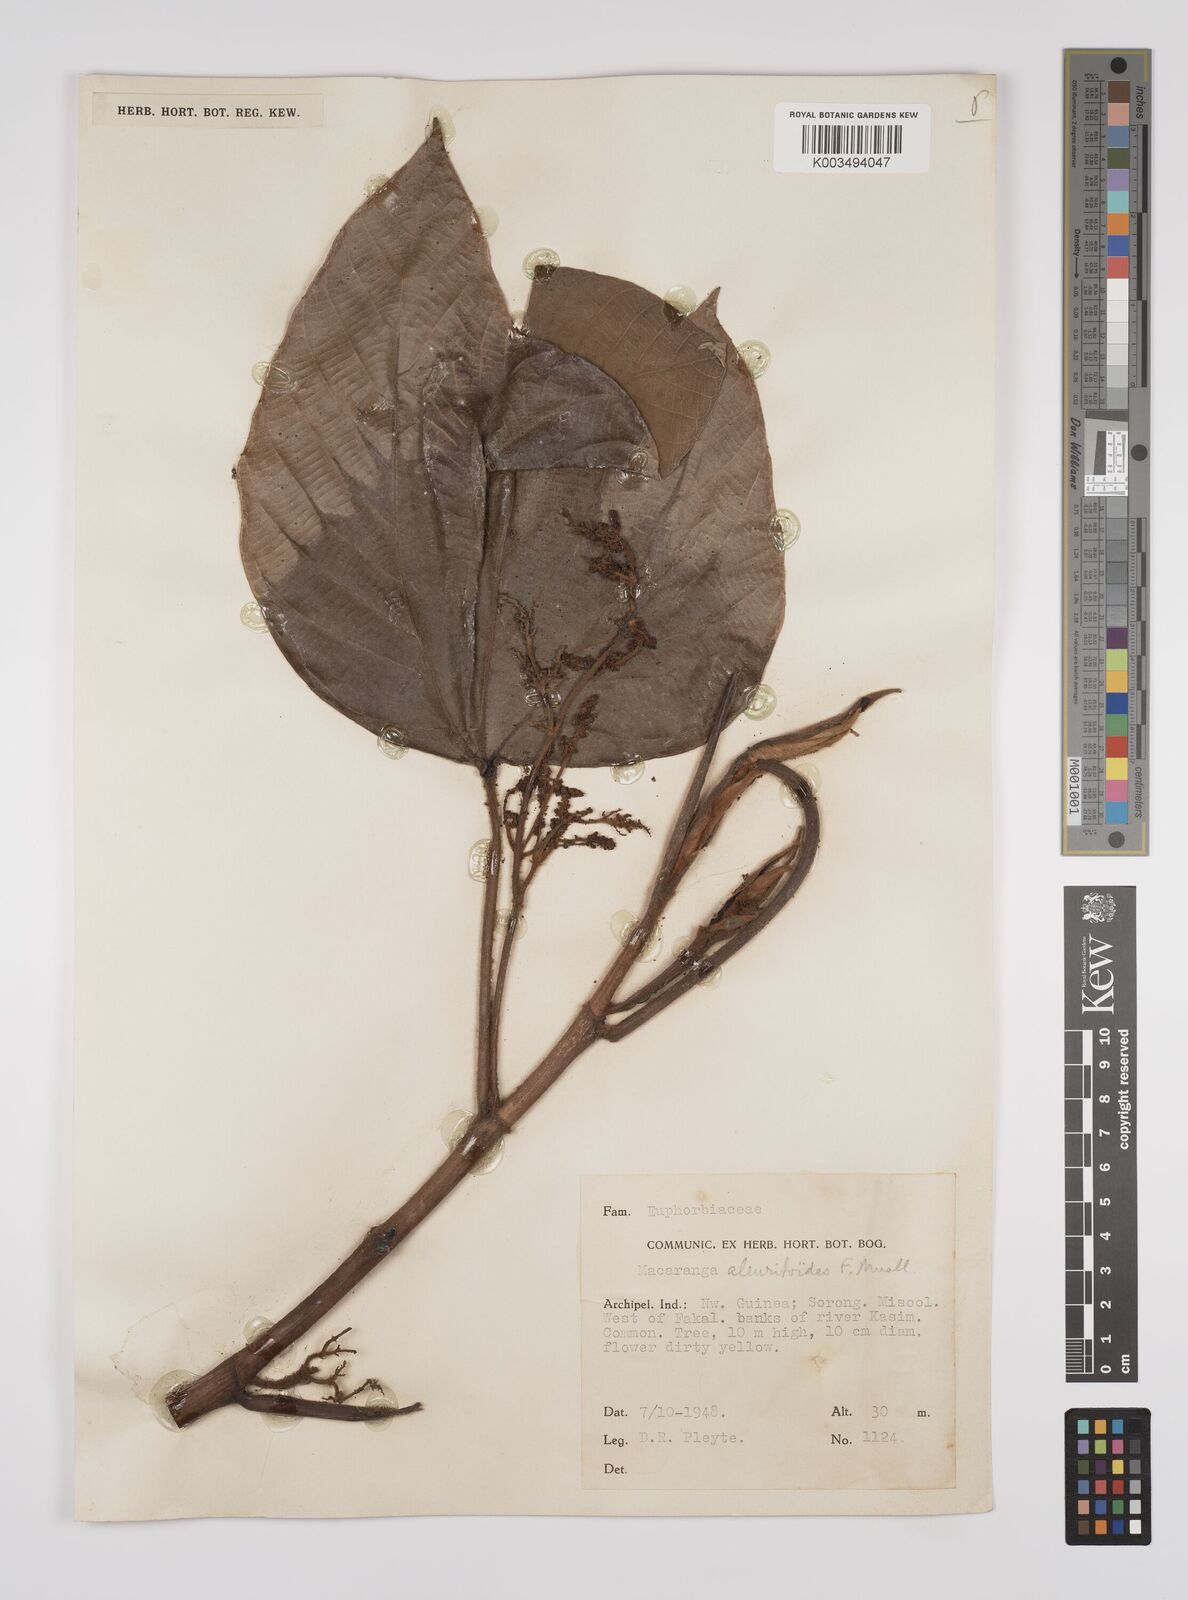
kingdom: Plantae
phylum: Tracheophyta
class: Magnoliopsida
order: Malpighiales
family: Euphorbiaceae
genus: Macaranga
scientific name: Macaranga aleuritoides
